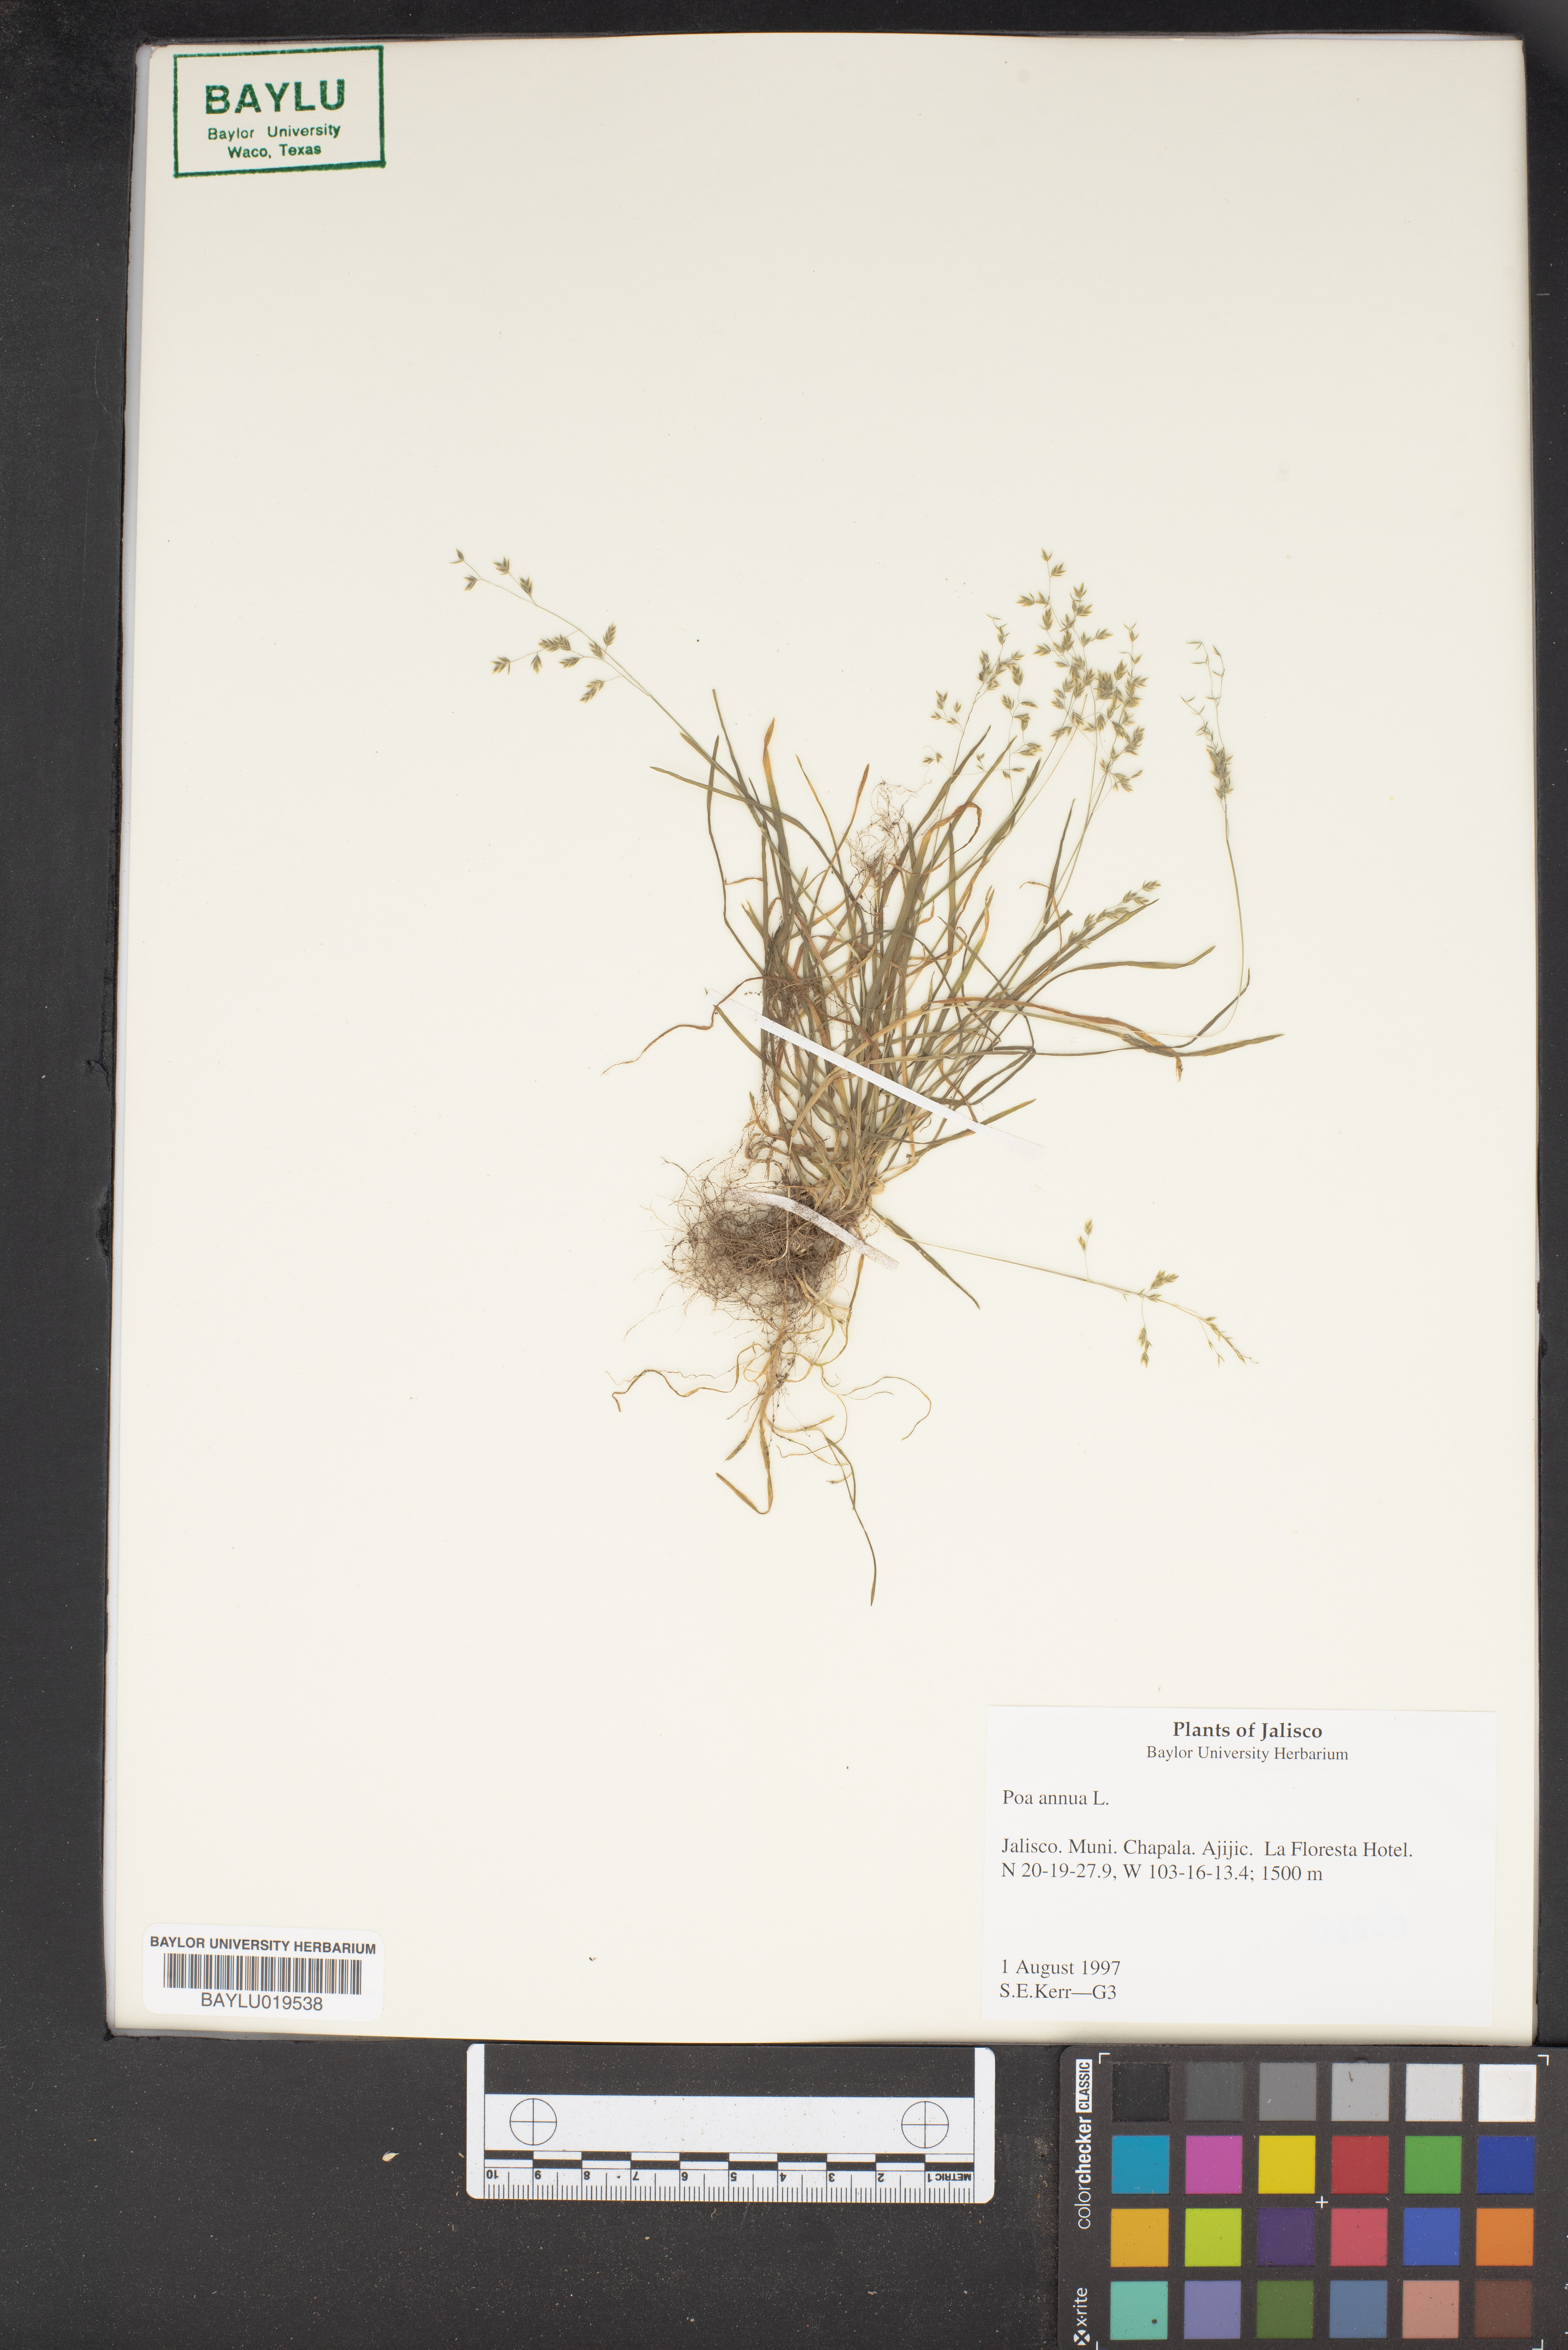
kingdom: Plantae
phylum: Tracheophyta
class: Liliopsida
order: Poales
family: Poaceae
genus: Poa
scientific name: Poa annua
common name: Annual bluegrass
